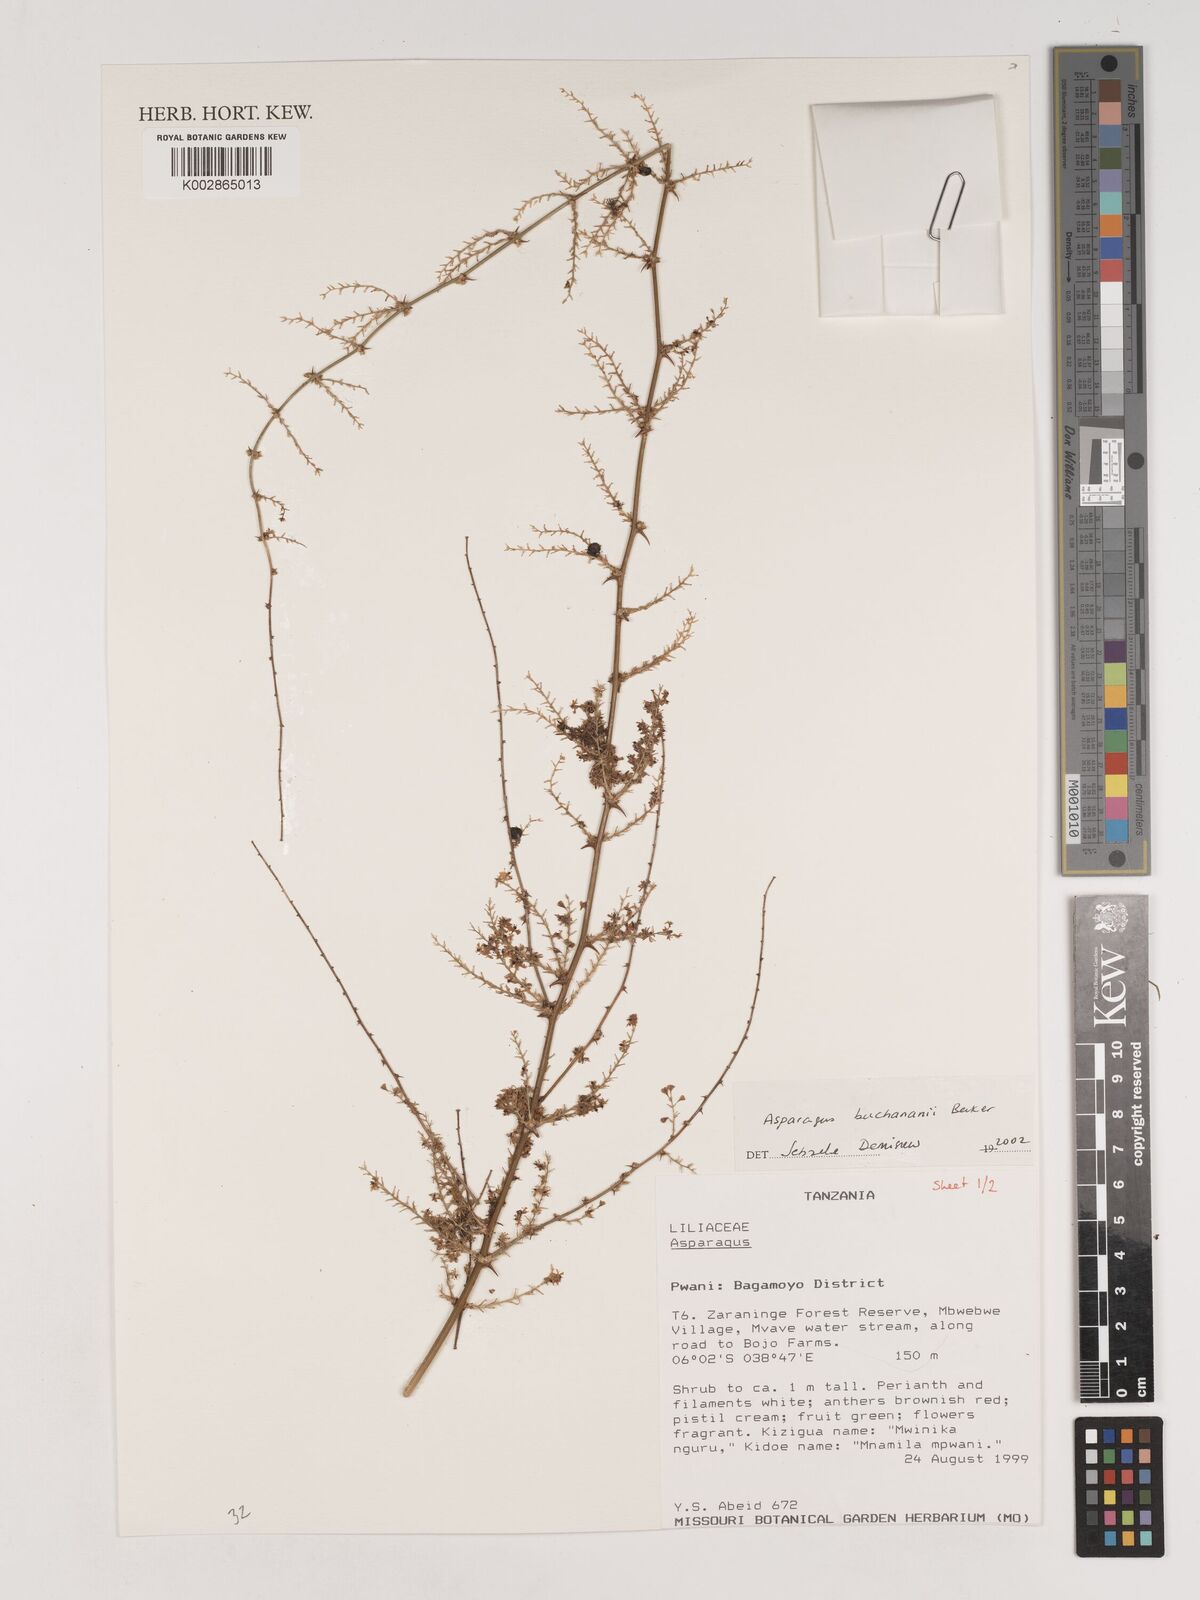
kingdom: Plantae
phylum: Tracheophyta
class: Liliopsida
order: Asparagales
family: Asparagaceae
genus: Asparagus
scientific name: Asparagus buchananii
